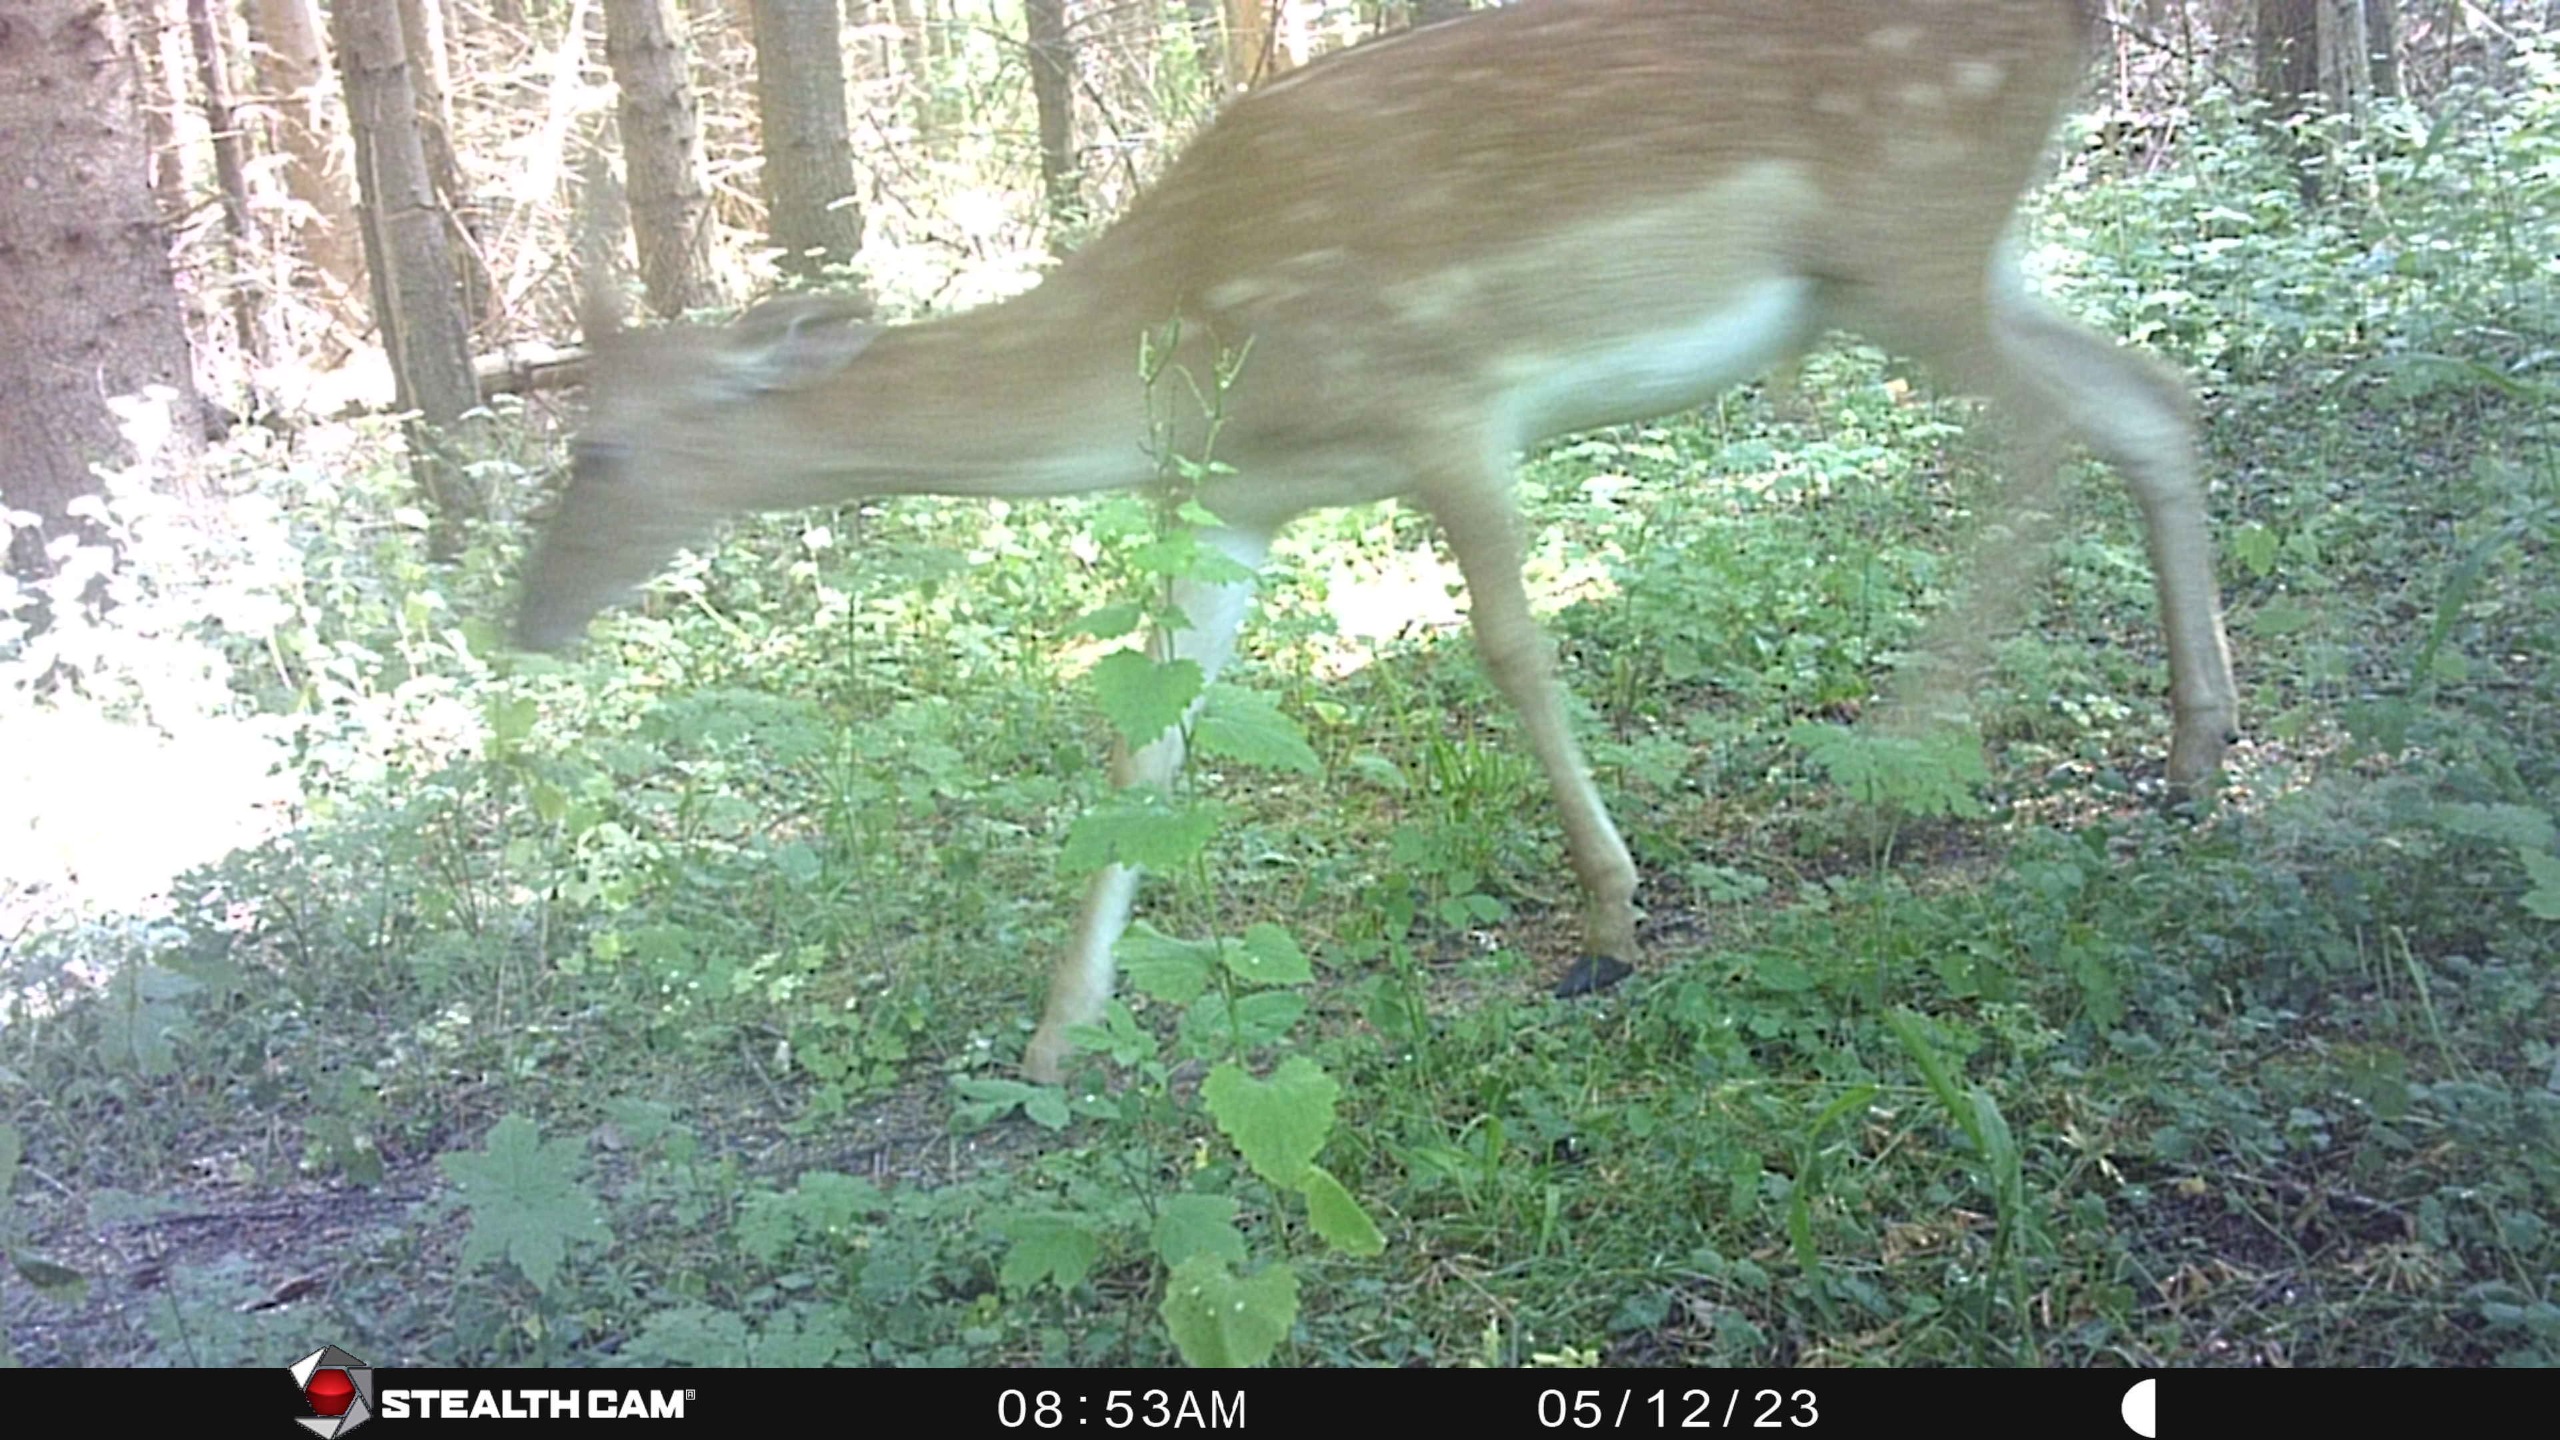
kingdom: Animalia
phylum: Chordata
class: Mammalia
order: Artiodactyla
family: Cervidae
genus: Dama
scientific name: Dama dama
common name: Dådyr
